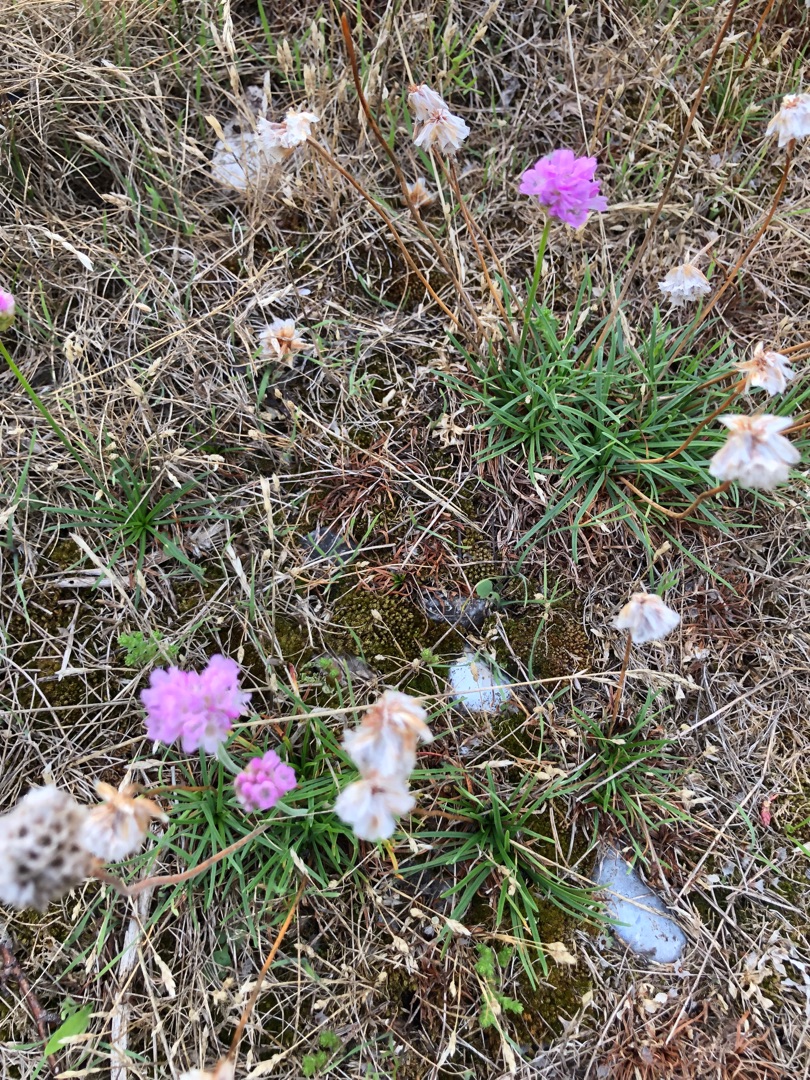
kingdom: Plantae
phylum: Tracheophyta
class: Magnoliopsida
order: Caryophyllales
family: Plumbaginaceae
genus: Armeria
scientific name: Armeria maritima
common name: Engelskgræs
